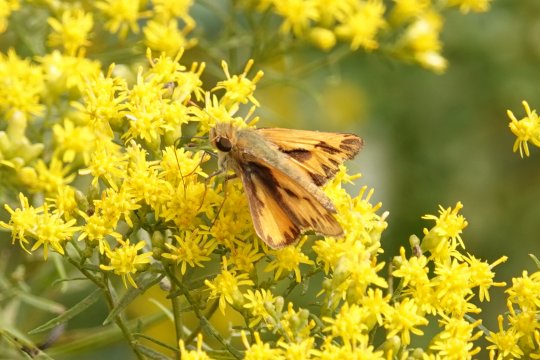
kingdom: Animalia
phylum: Arthropoda
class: Insecta
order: Lepidoptera
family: Hesperiidae
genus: Hylephila
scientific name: Hylephila phyleus
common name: Fiery Skipper
